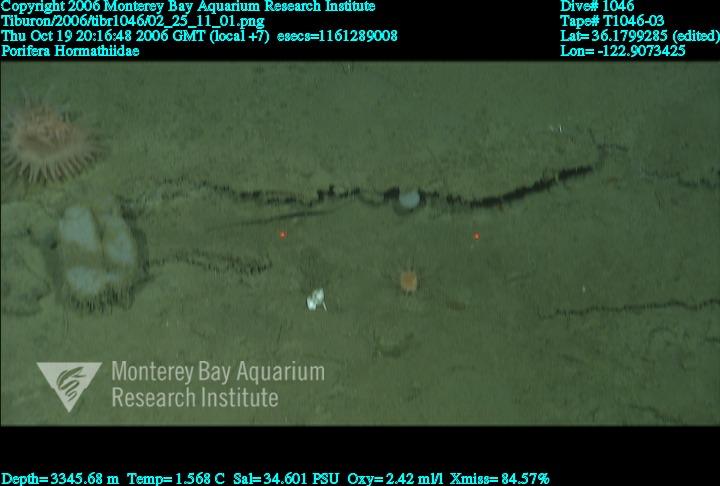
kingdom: Animalia
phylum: Porifera
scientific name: Porifera
